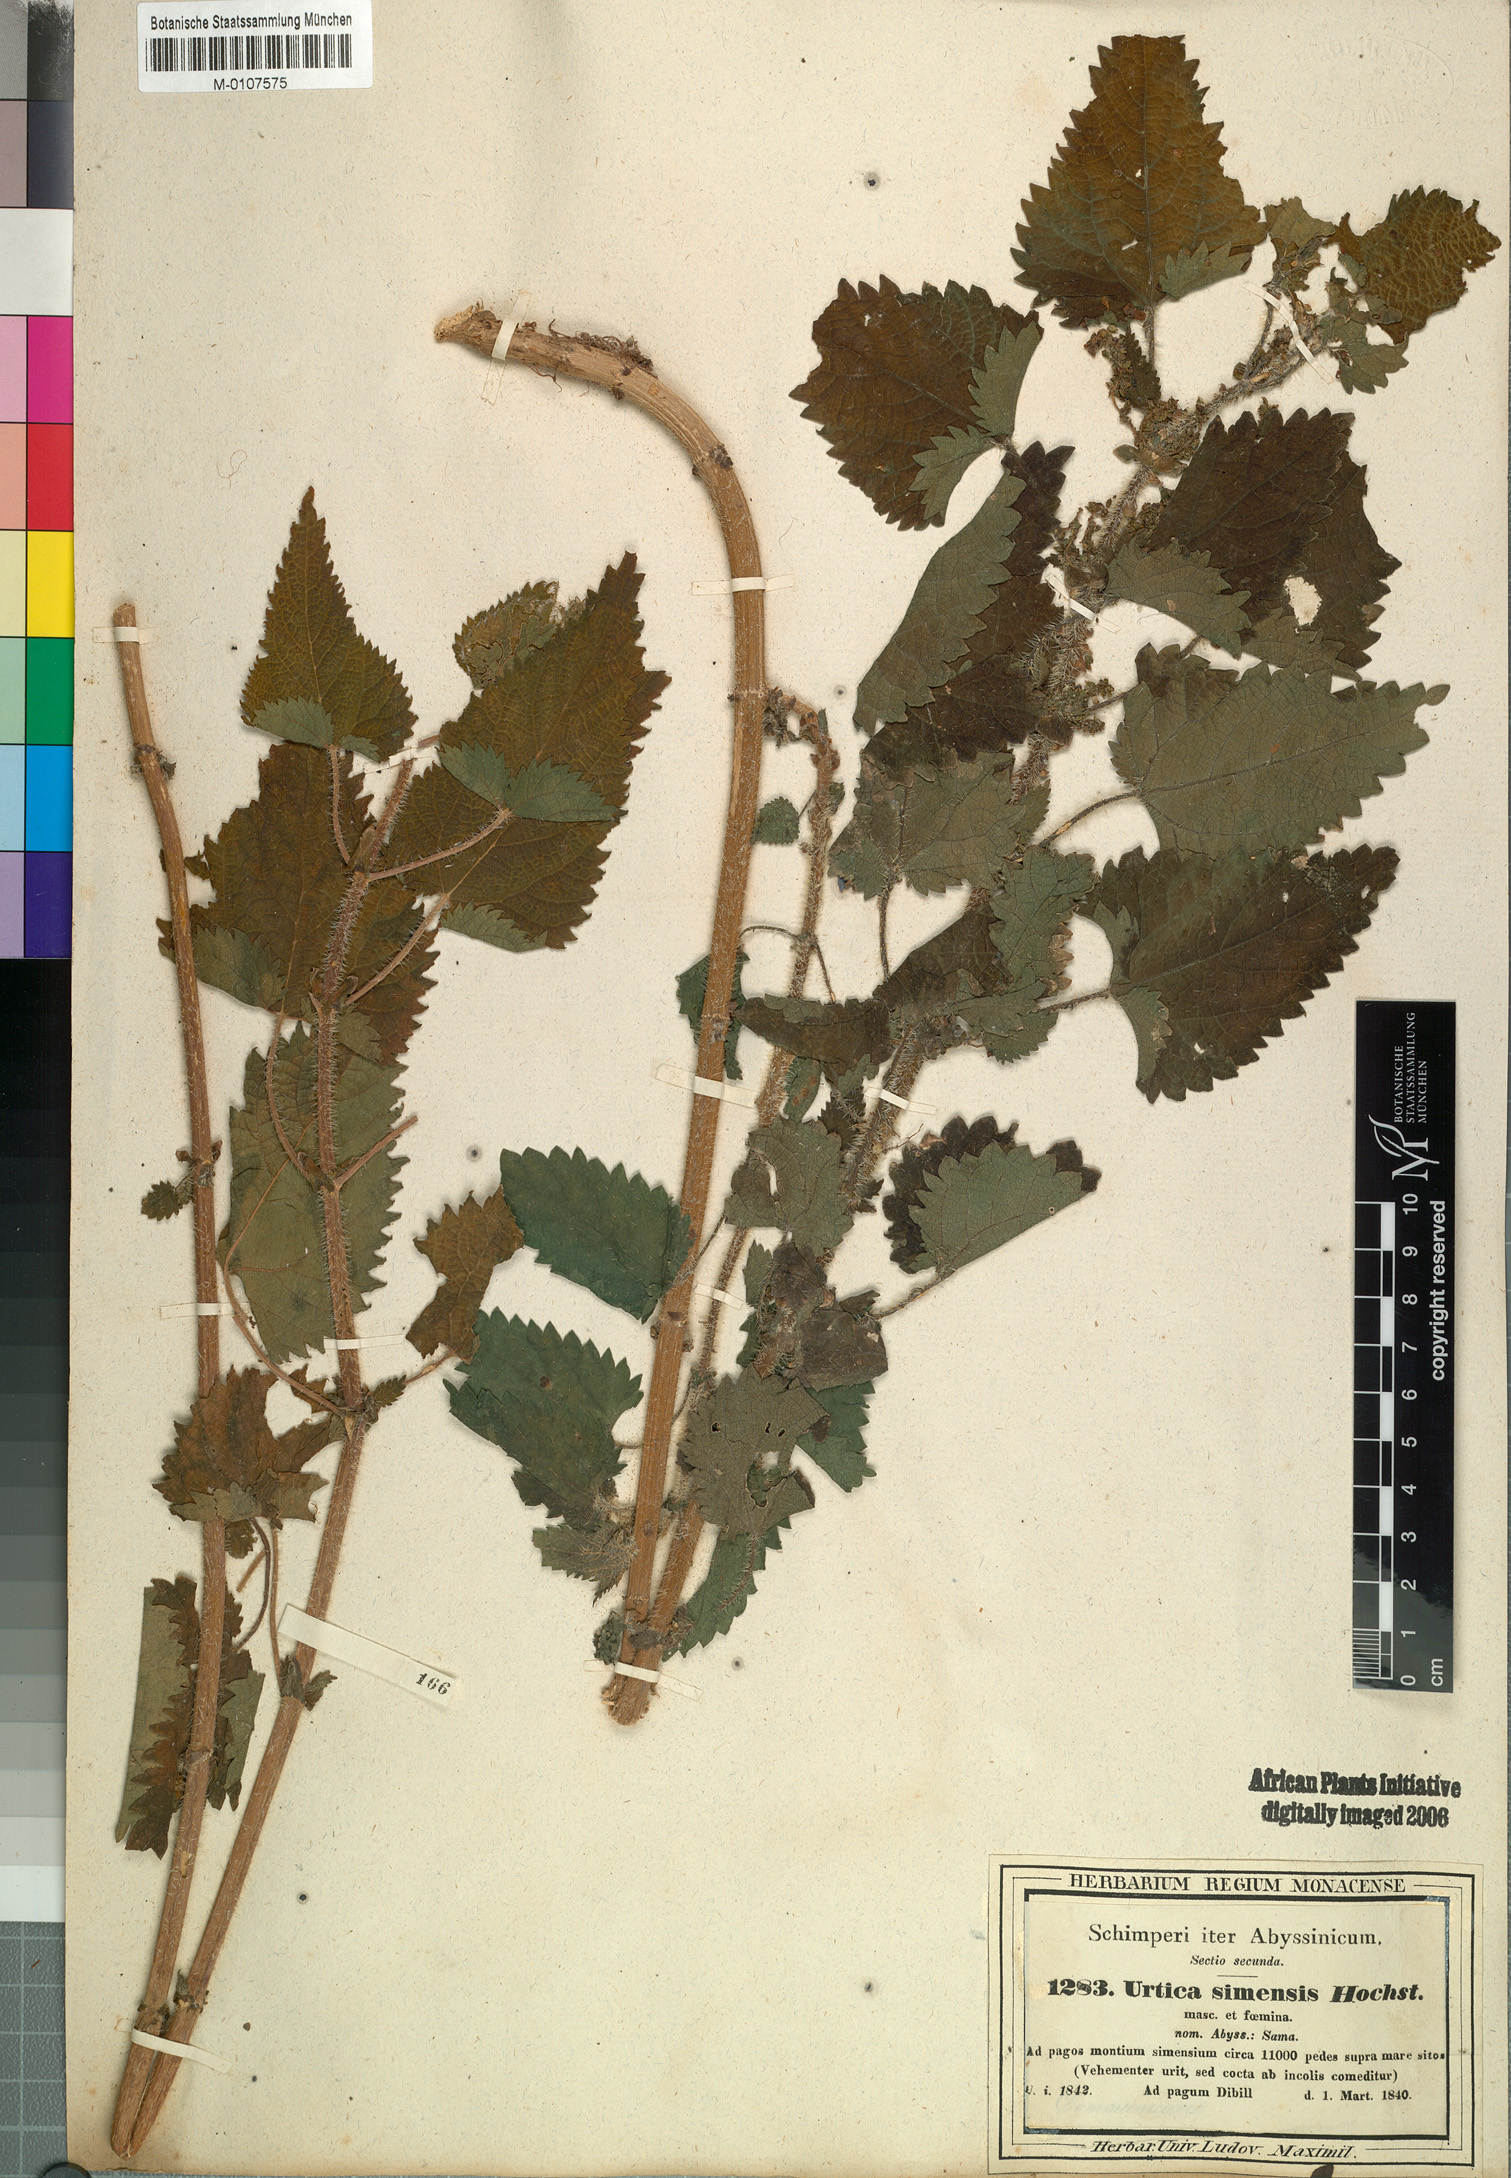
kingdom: Plantae
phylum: Tracheophyta
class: Magnoliopsida
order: Rosales
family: Urticaceae
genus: Urtica
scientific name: Urtica simensis
